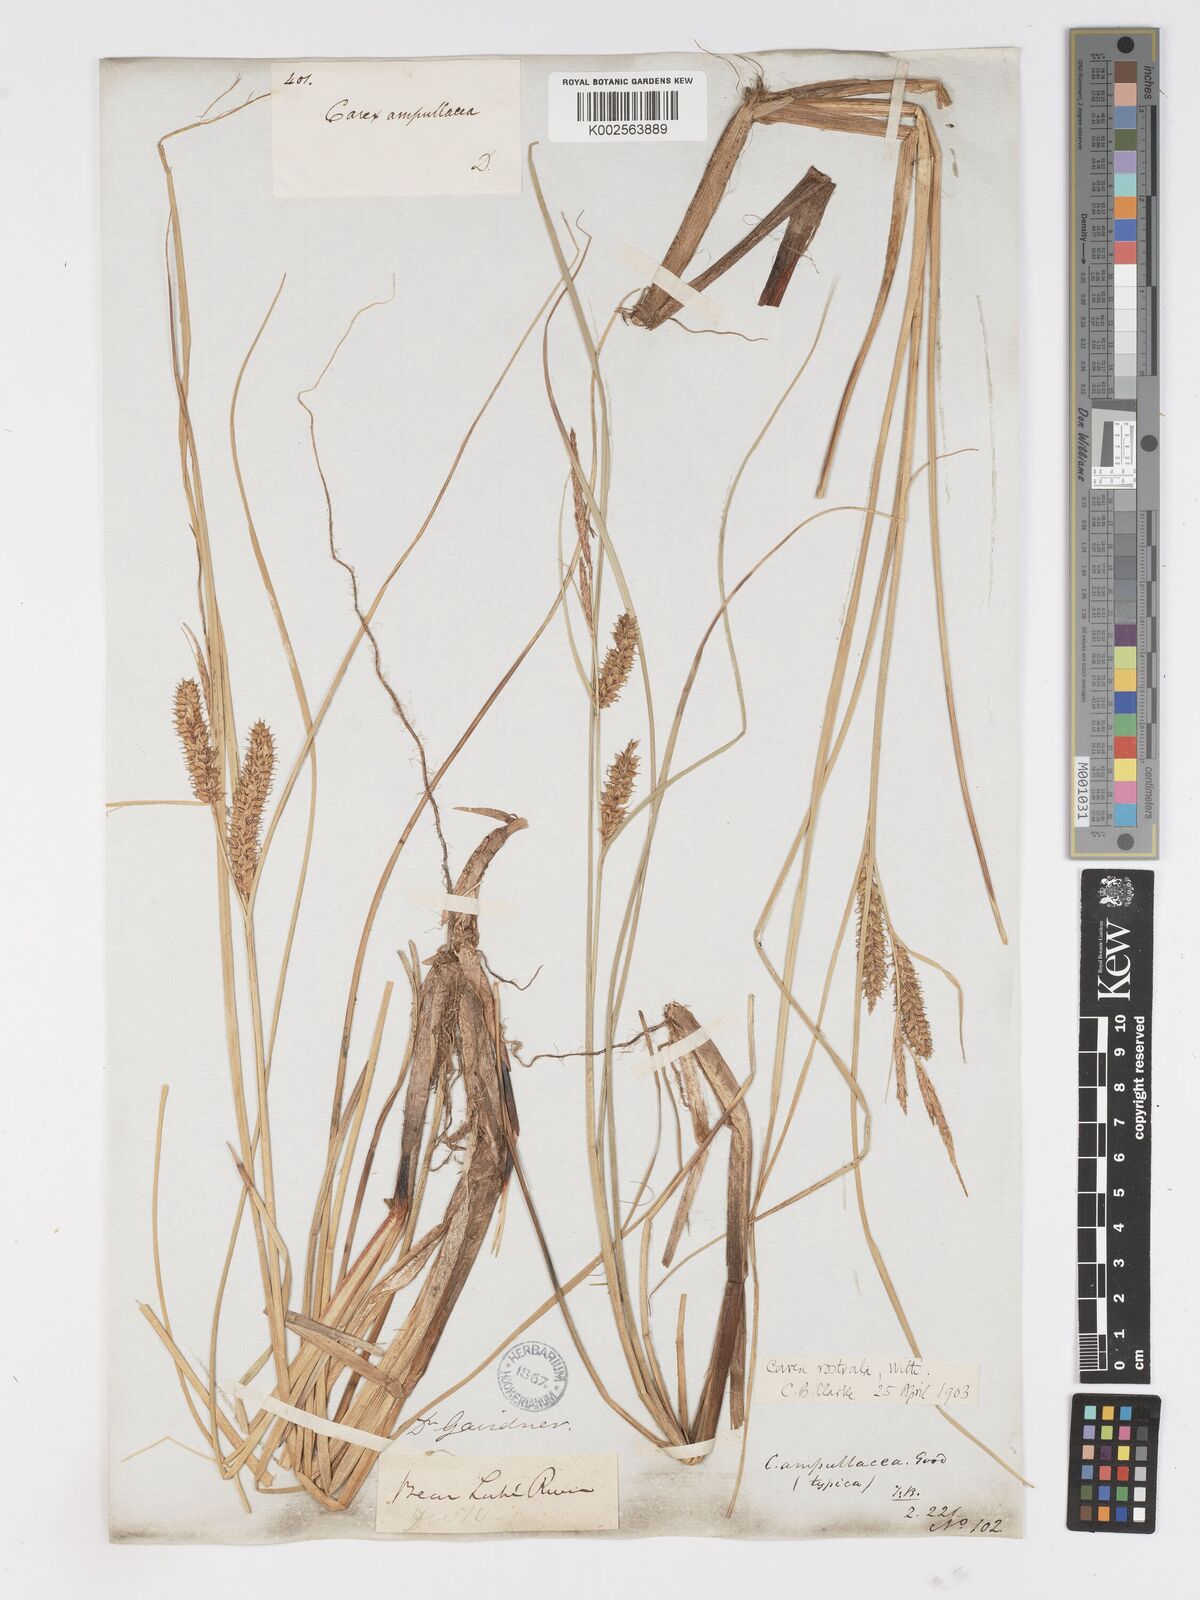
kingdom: Plantae
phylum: Tracheophyta
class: Liliopsida
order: Poales
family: Cyperaceae
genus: Carex
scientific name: Carex rostrata
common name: Bottle sedge
